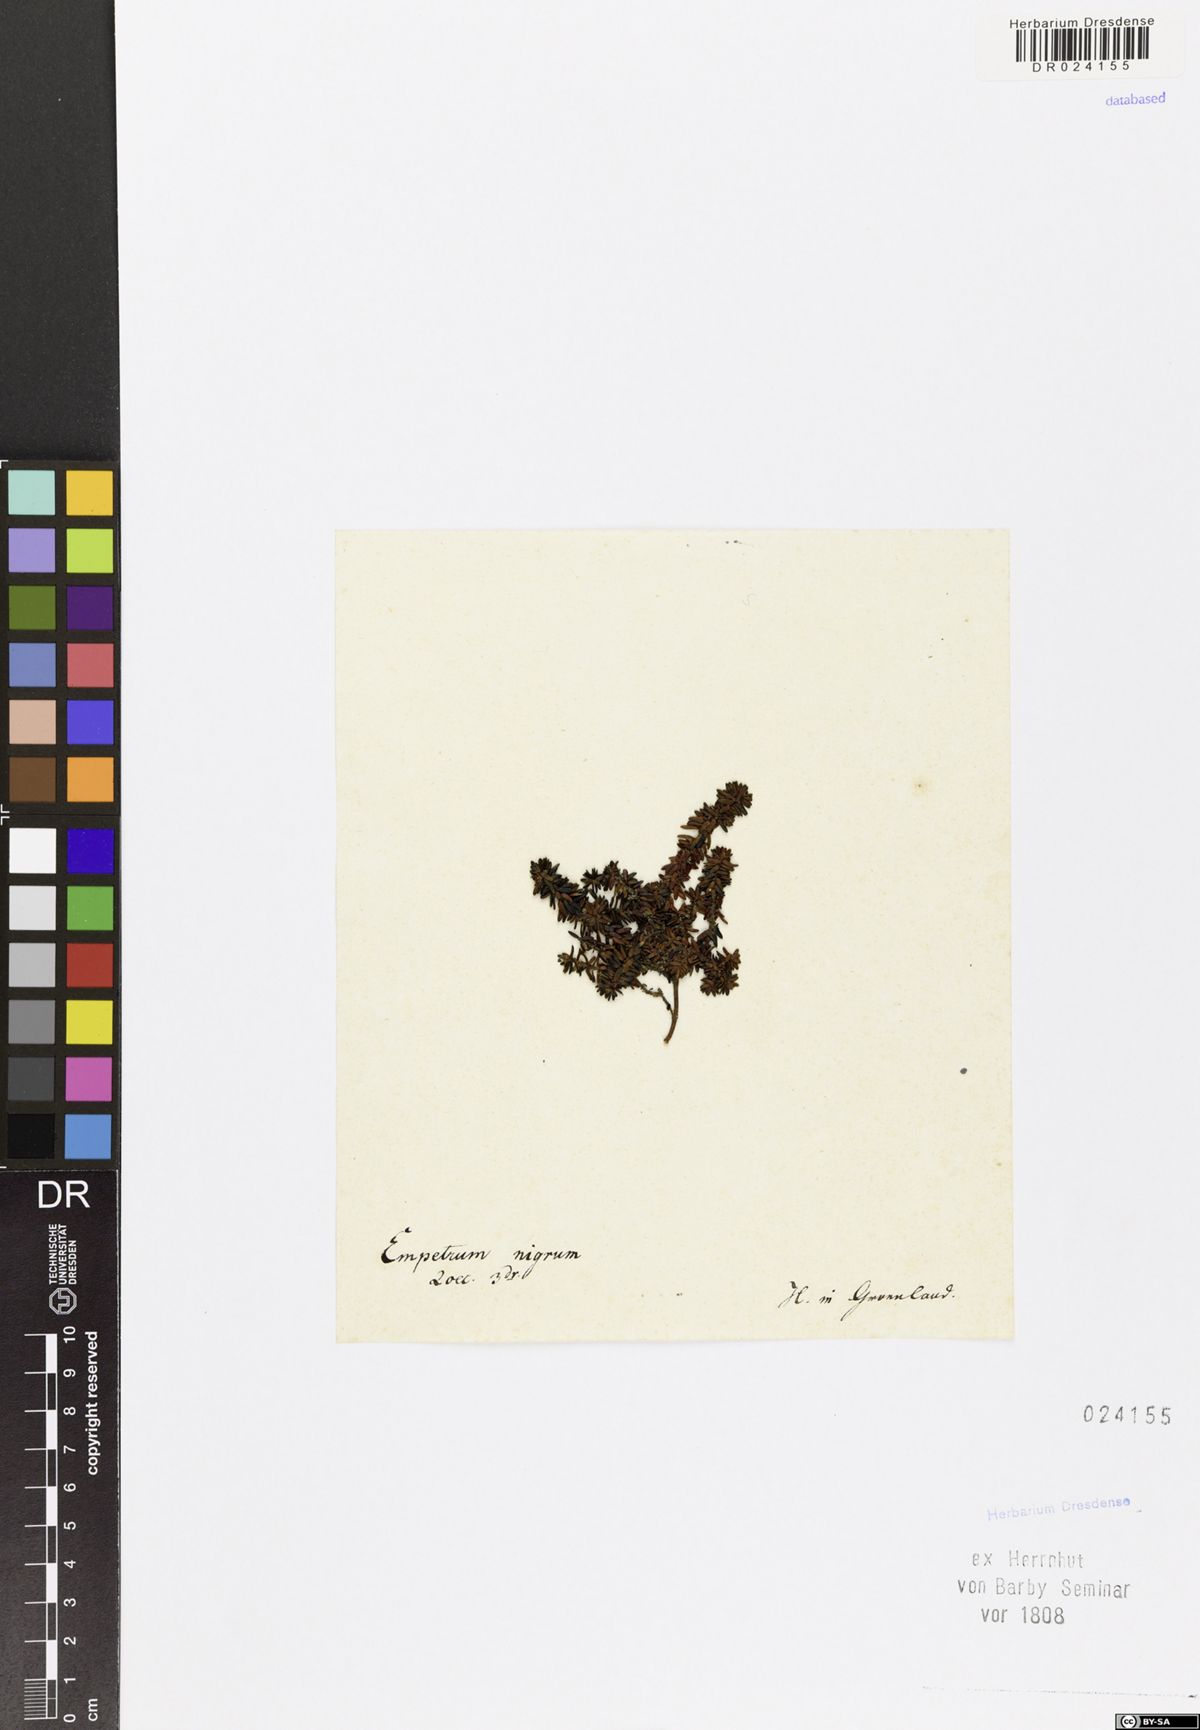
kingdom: Plantae
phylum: Tracheophyta
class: Magnoliopsida
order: Ericales
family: Ericaceae
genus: Empetrum
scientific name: Empetrum nigrum
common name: Black crowberry
